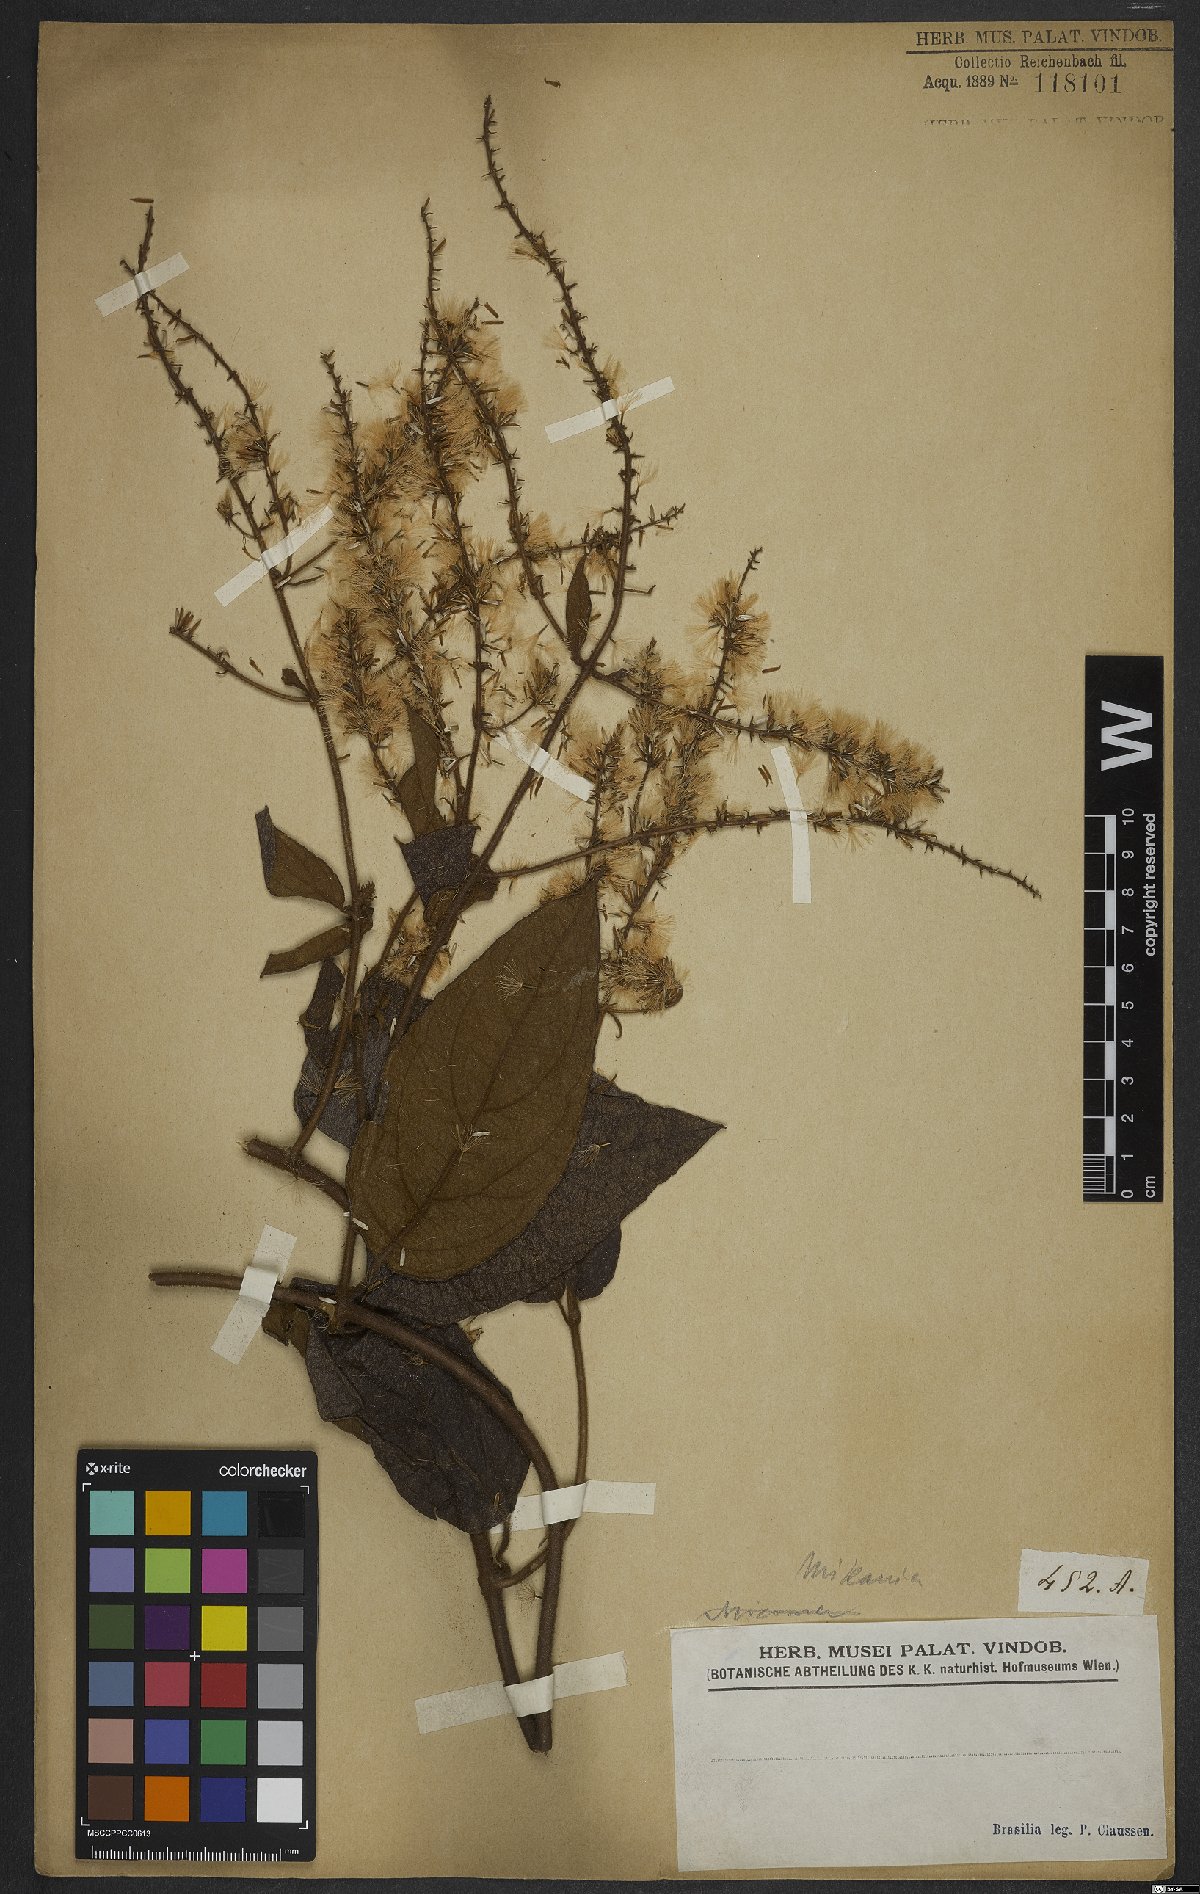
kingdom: Plantae
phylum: Tracheophyta
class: Magnoliopsida
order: Asterales
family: Asteraceae
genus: Mikania
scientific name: Mikania
